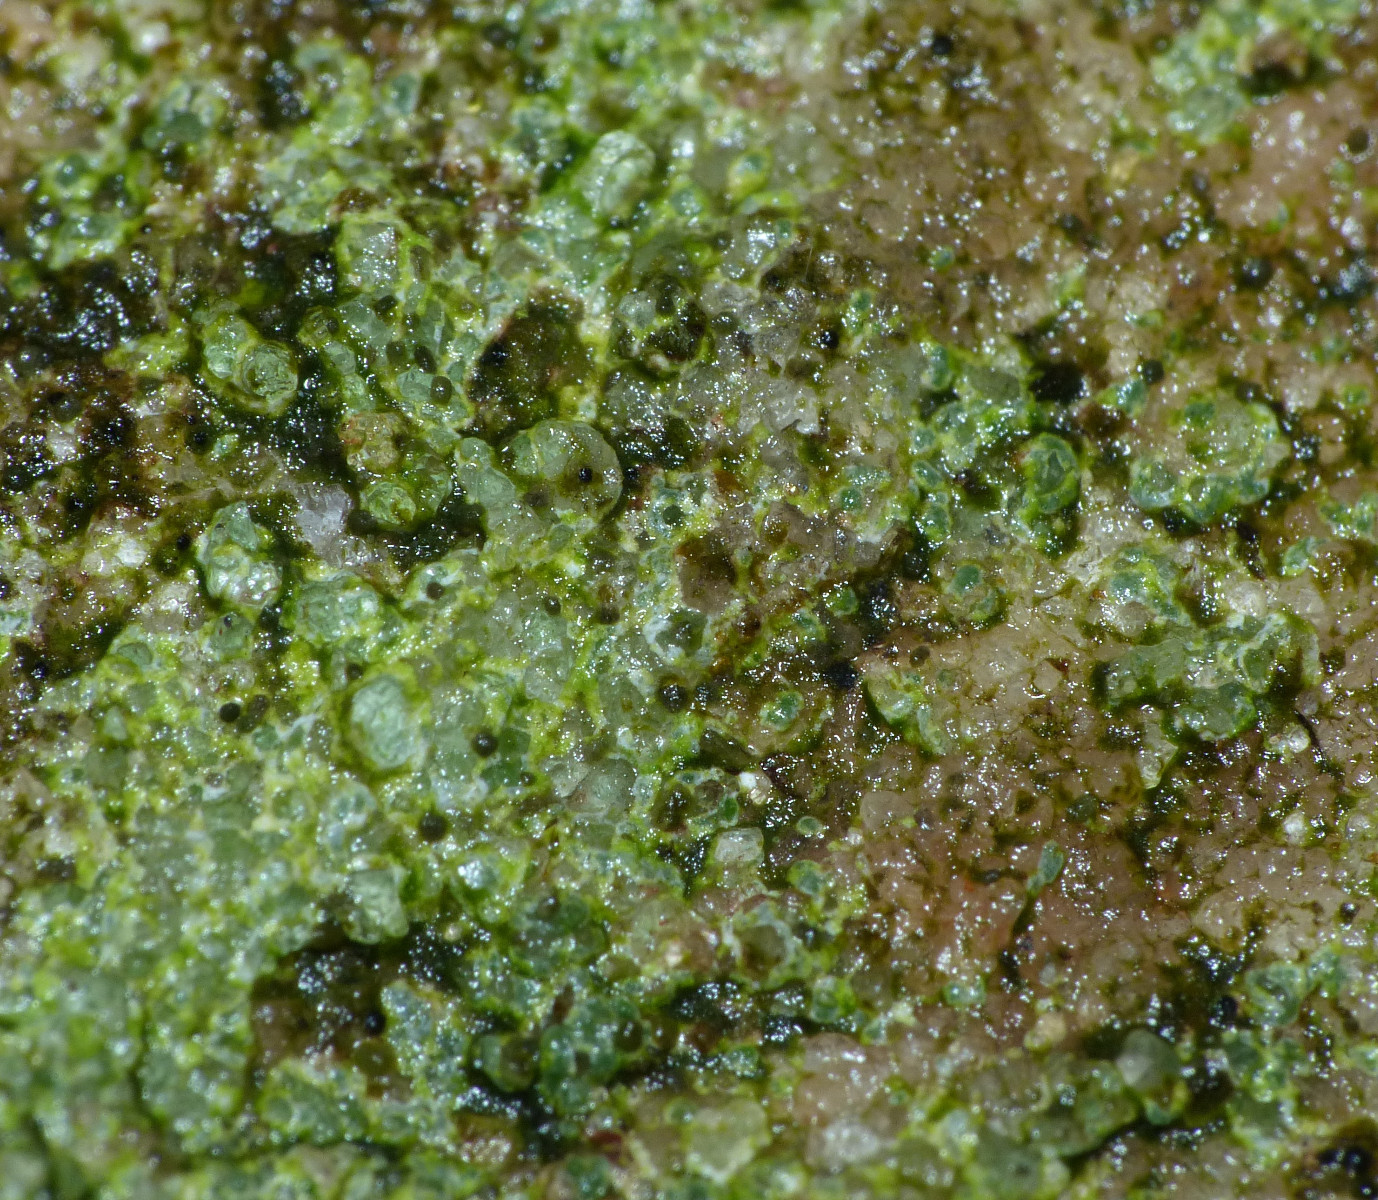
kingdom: Fungi
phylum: Ascomycota
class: Lecanoromycetes
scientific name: Lecanoromycetes
